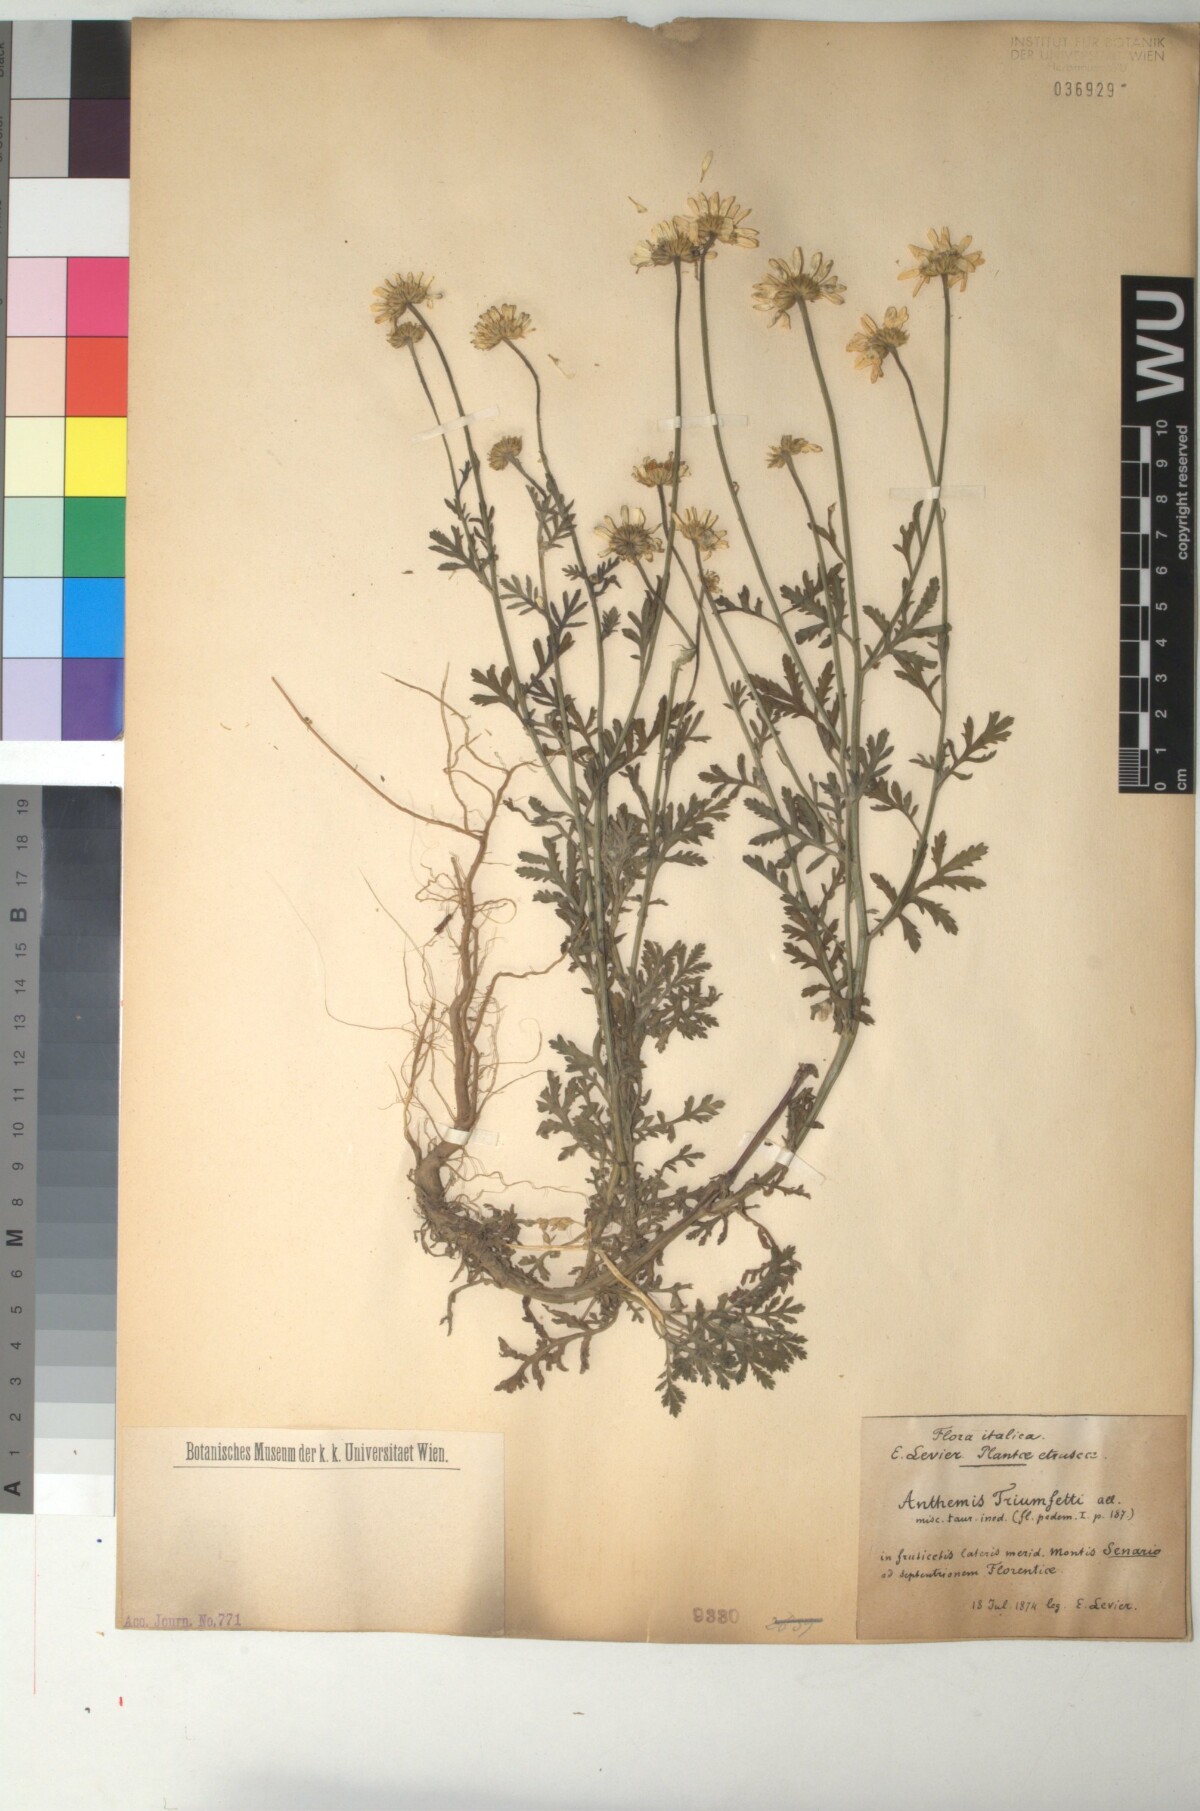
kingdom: Plantae
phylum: Tracheophyta
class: Magnoliopsida
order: Asterales
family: Asteraceae
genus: Cota
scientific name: Cota triumfetti
